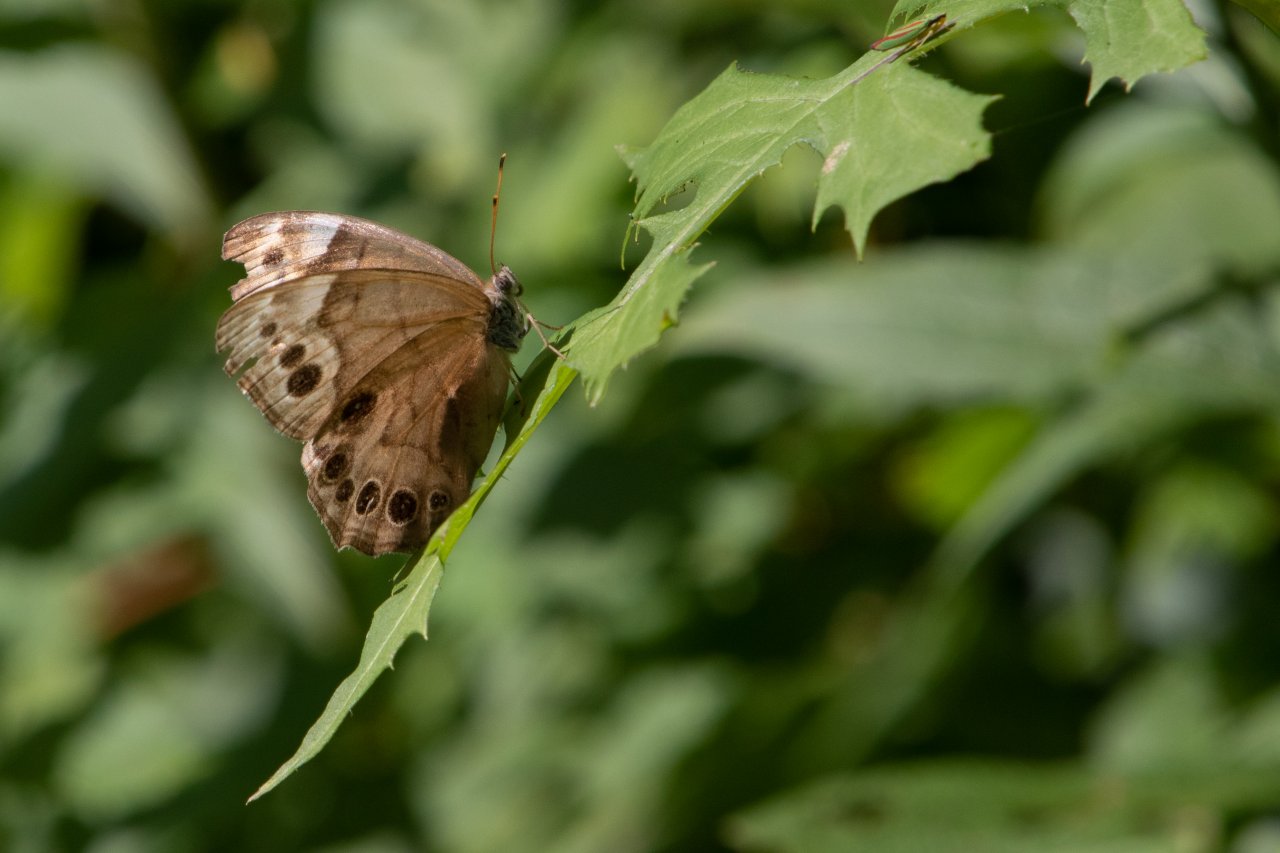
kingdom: Animalia
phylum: Arthropoda
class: Insecta
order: Lepidoptera
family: Nymphalidae
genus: Lethe
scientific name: Lethe anthedon
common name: Northern Pearly-Eye
